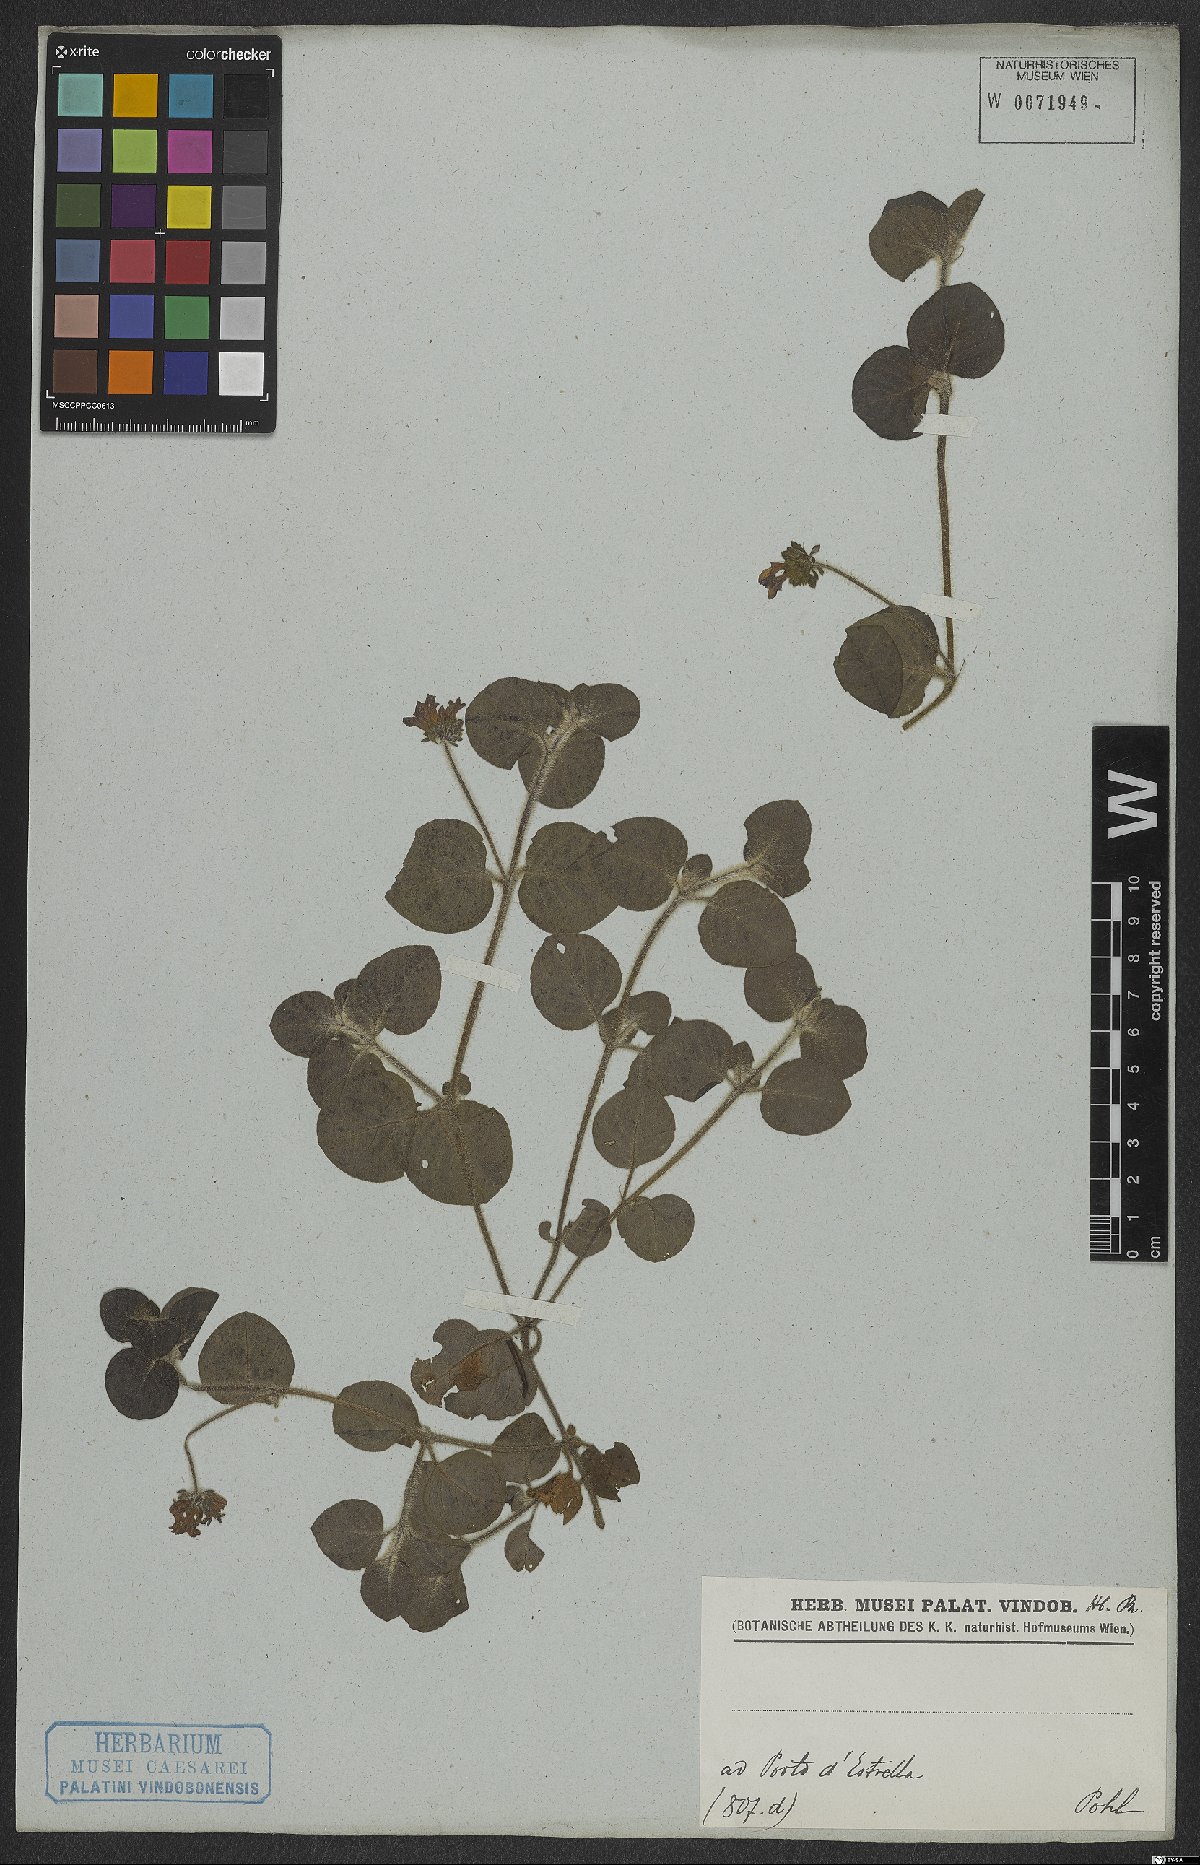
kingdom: Plantae
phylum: Tracheophyta
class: Magnoliopsida
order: Gentianales
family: Rubiaceae
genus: Coccocypselum
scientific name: Coccocypselum
